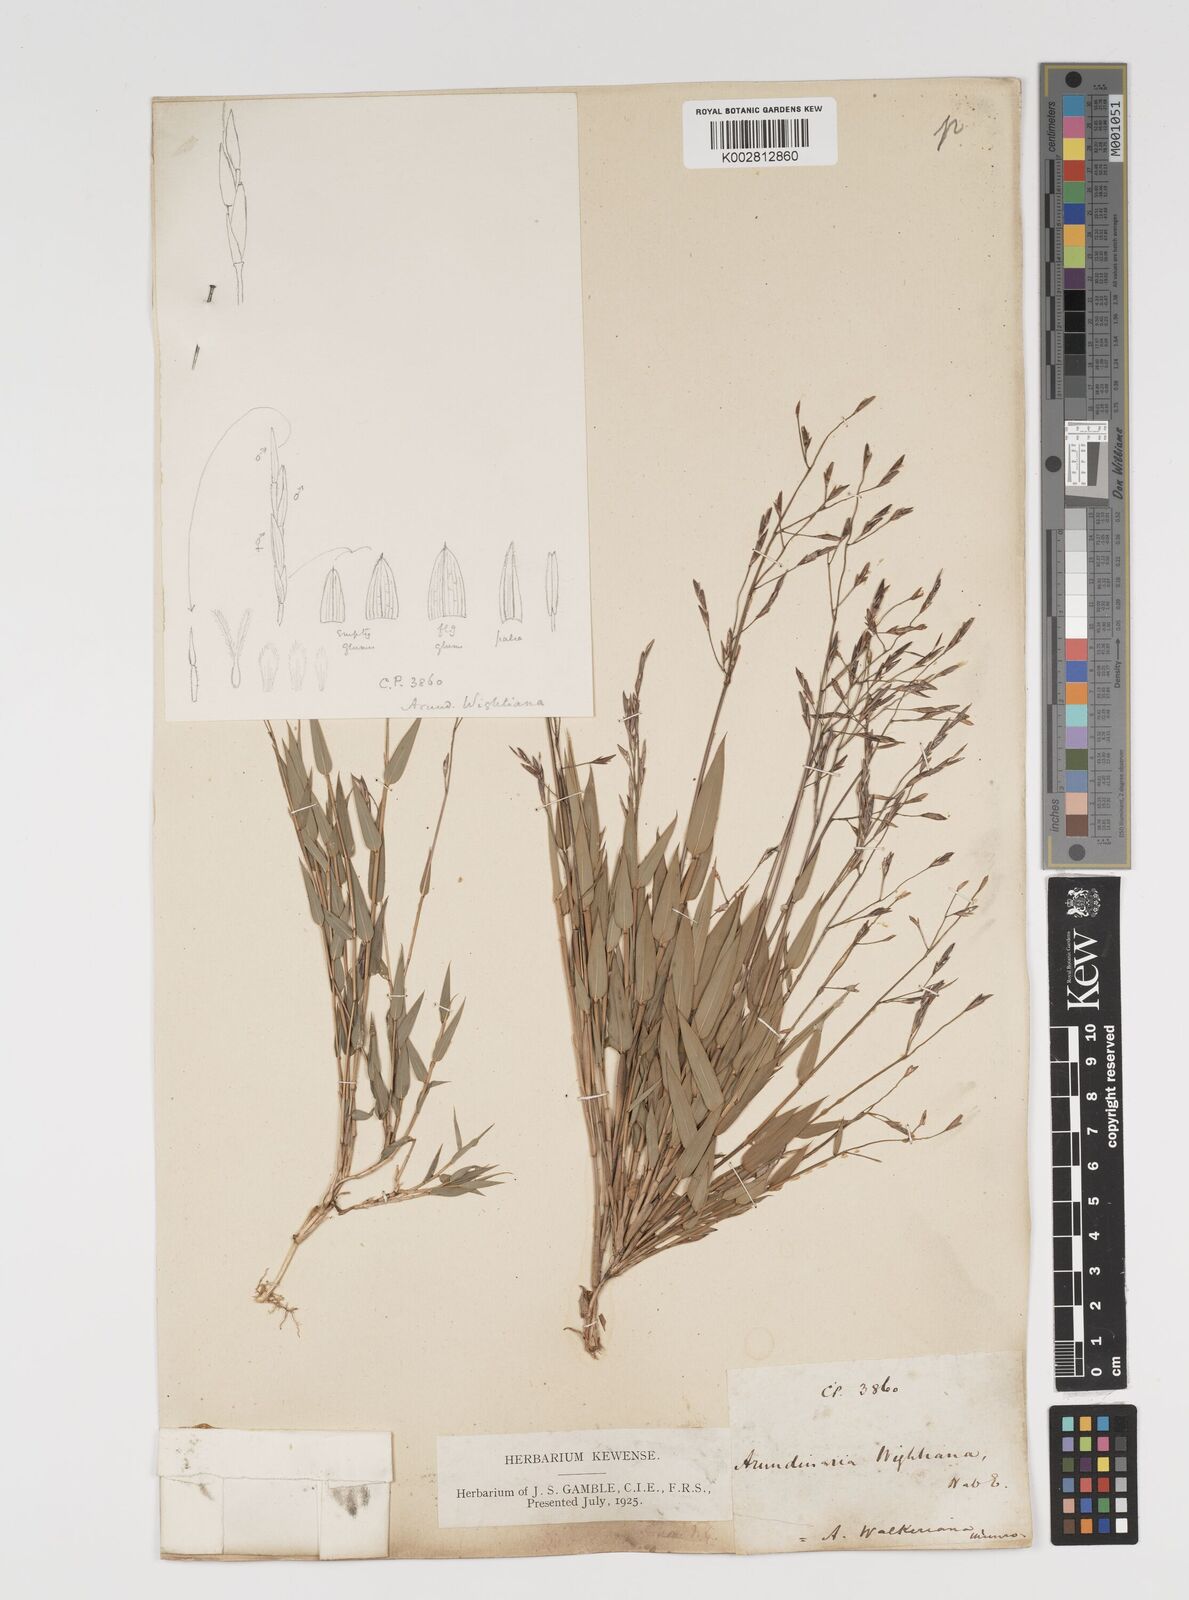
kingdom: Plantae
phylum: Tracheophyta
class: Liliopsida
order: Poales
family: Poaceae
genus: Kuruna
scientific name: Kuruna scandens
